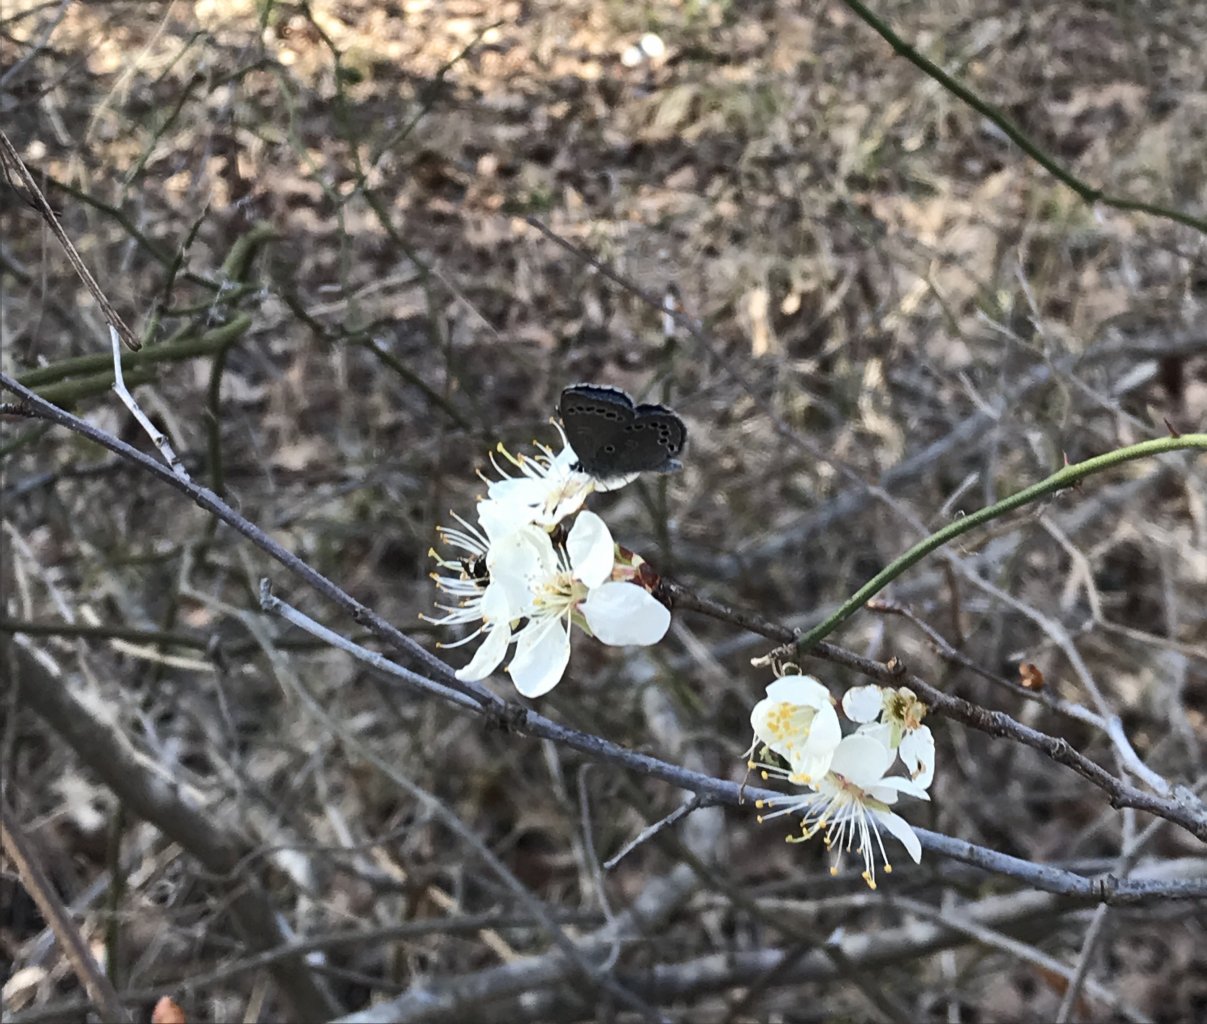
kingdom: Animalia
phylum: Arthropoda
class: Insecta
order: Lepidoptera
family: Lycaenidae
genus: Glaucopsyche
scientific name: Glaucopsyche lygdamus
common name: Silvery Blue
